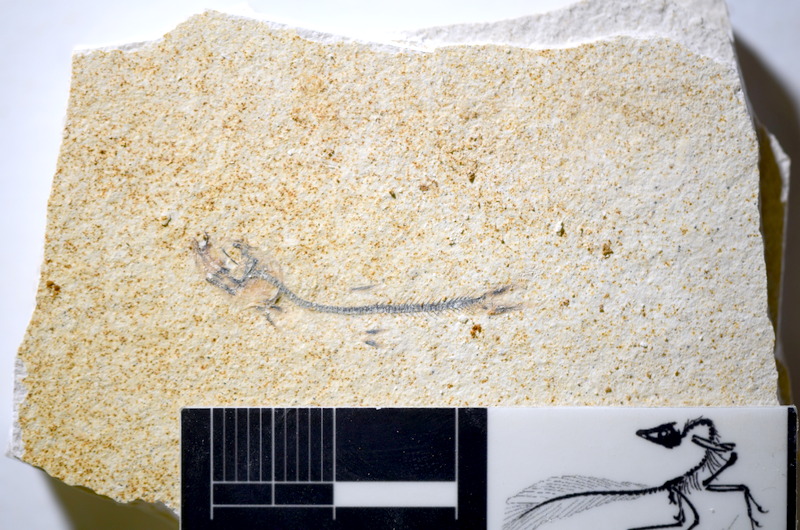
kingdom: Animalia
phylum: Chordata
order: Salmoniformes
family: Orthogonikleithridae
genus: Orthogonikleithrus
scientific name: Orthogonikleithrus hoelli
